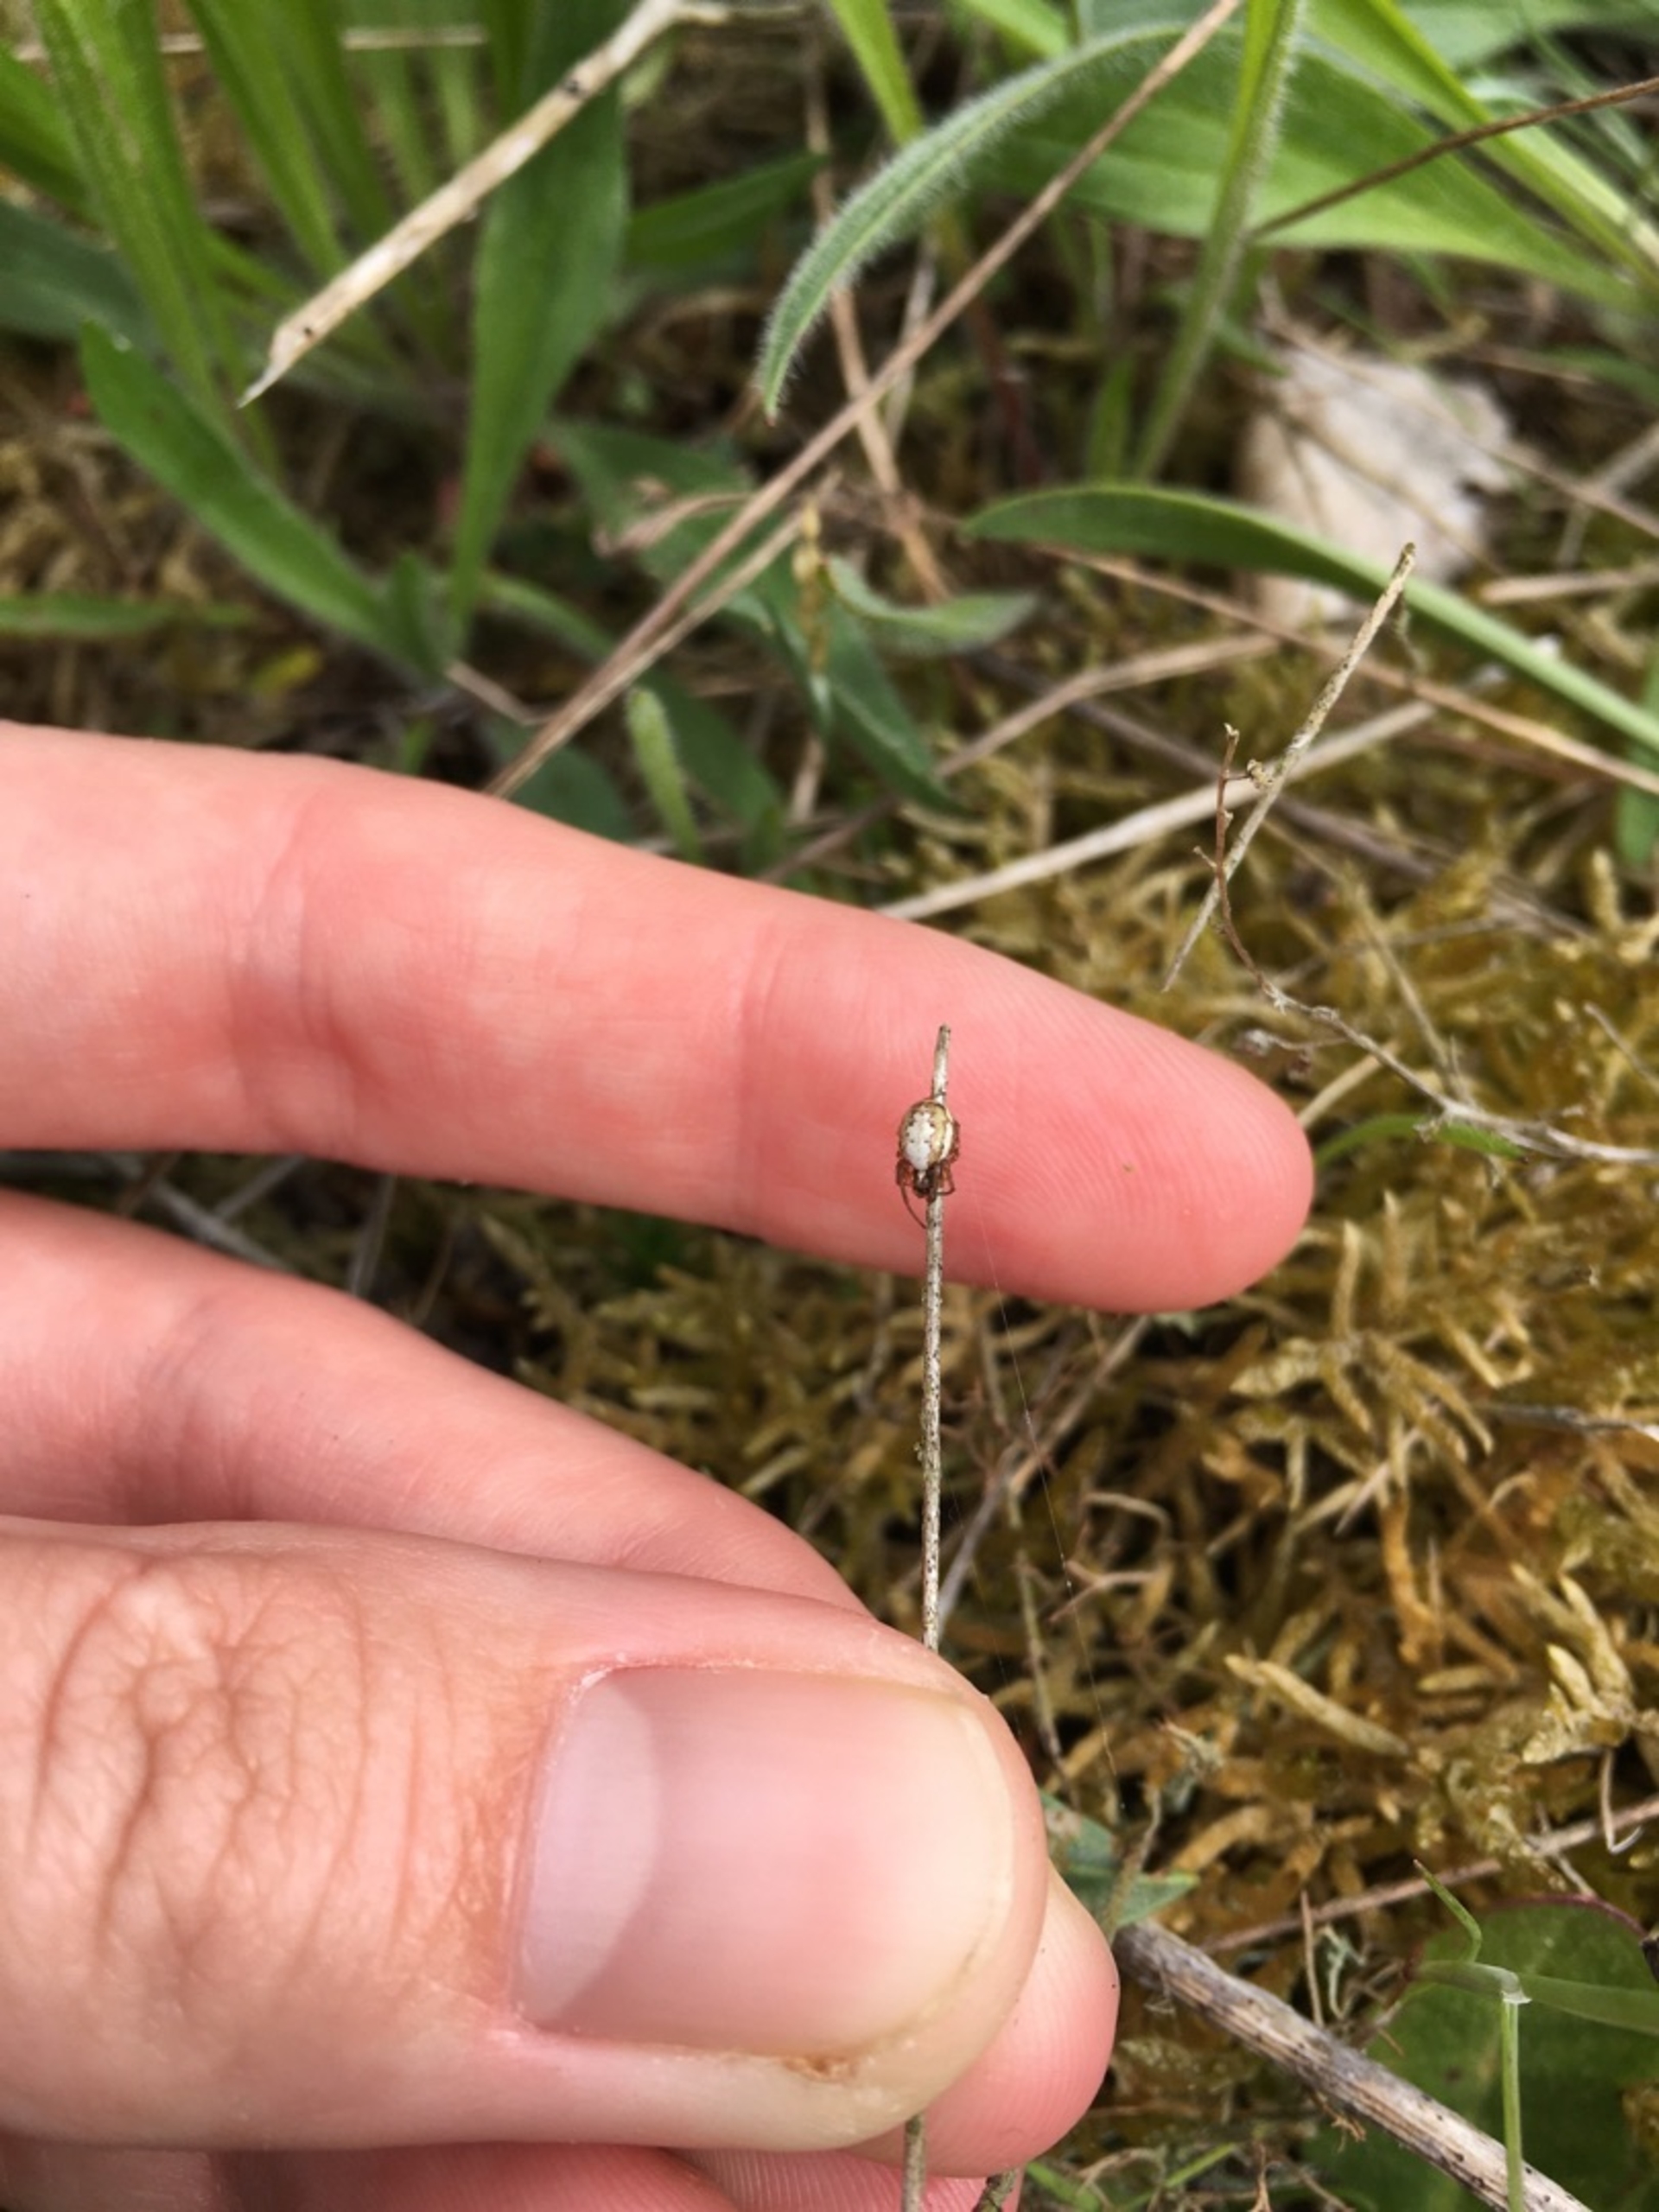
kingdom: Animalia
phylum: Arthropoda
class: Arachnida
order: Araneae
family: Araneidae
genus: Hypsosinga
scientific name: Hypsosinga albovittata
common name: Blisglanshjulspinder
